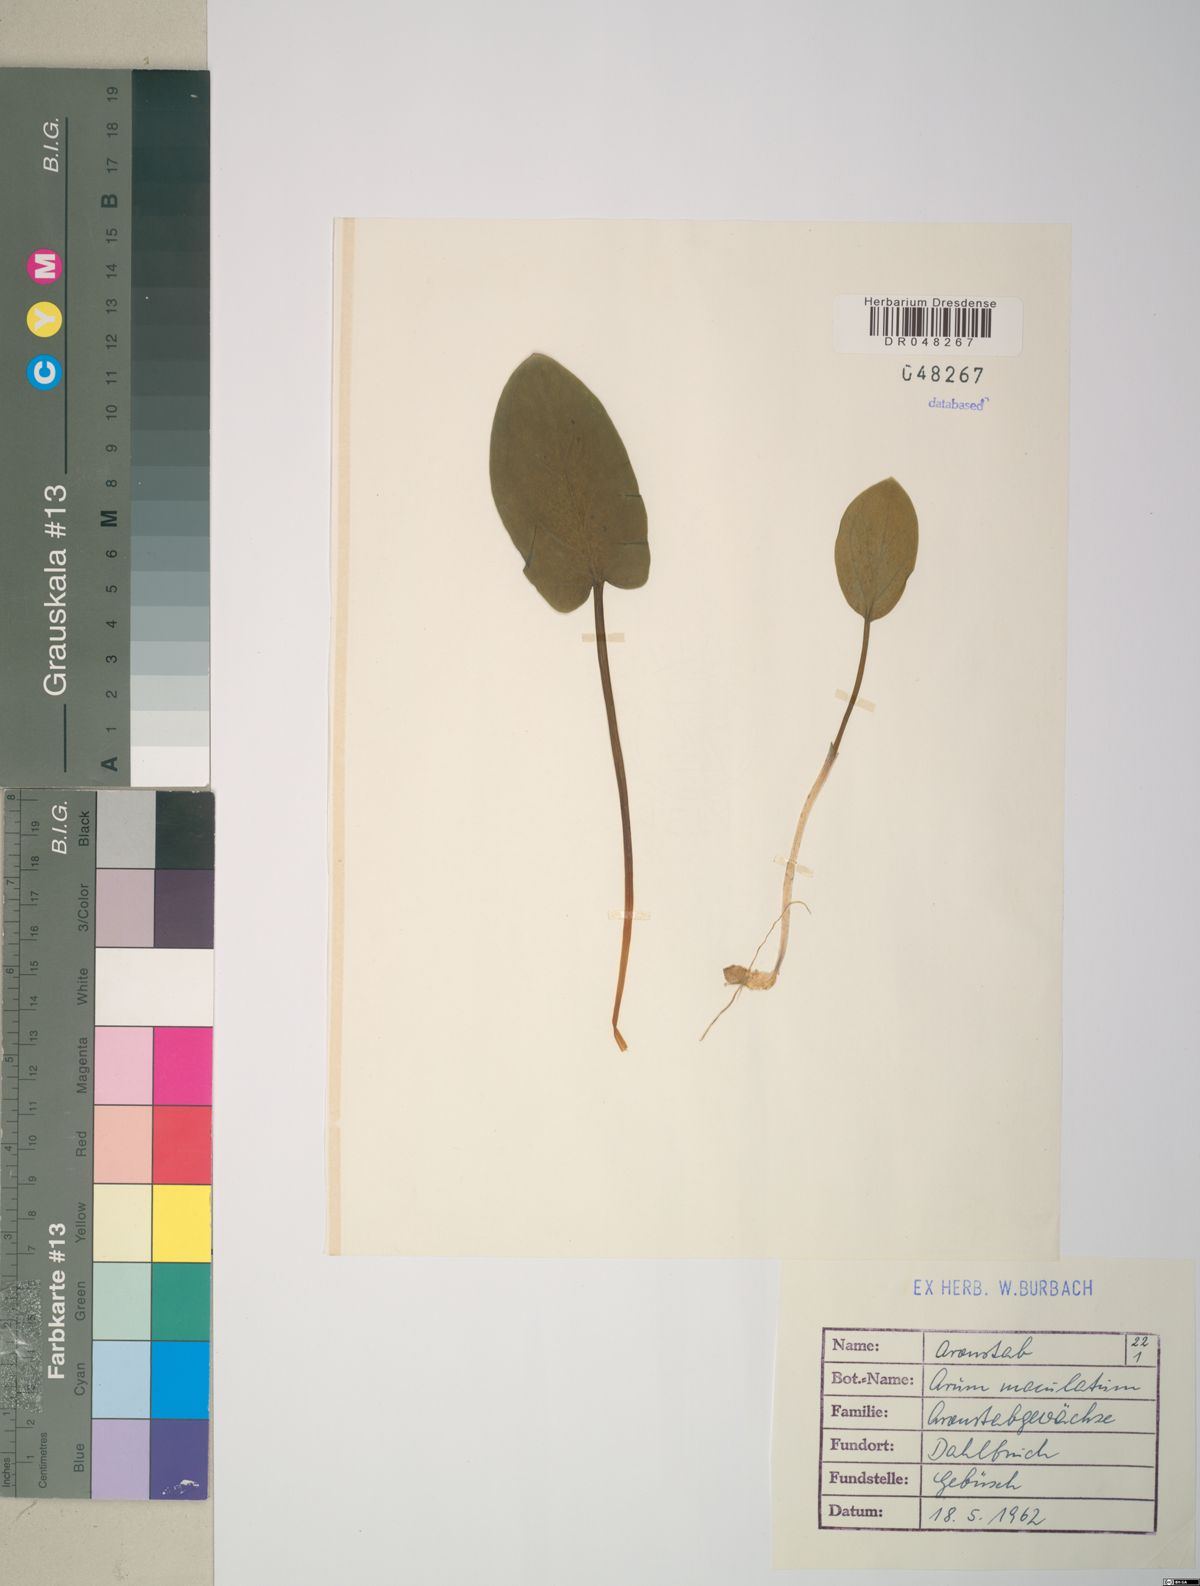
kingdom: Plantae
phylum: Tracheophyta
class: Liliopsida
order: Alismatales
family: Araceae
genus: Arum
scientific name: Arum maculatum
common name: Lords-and-ladies
